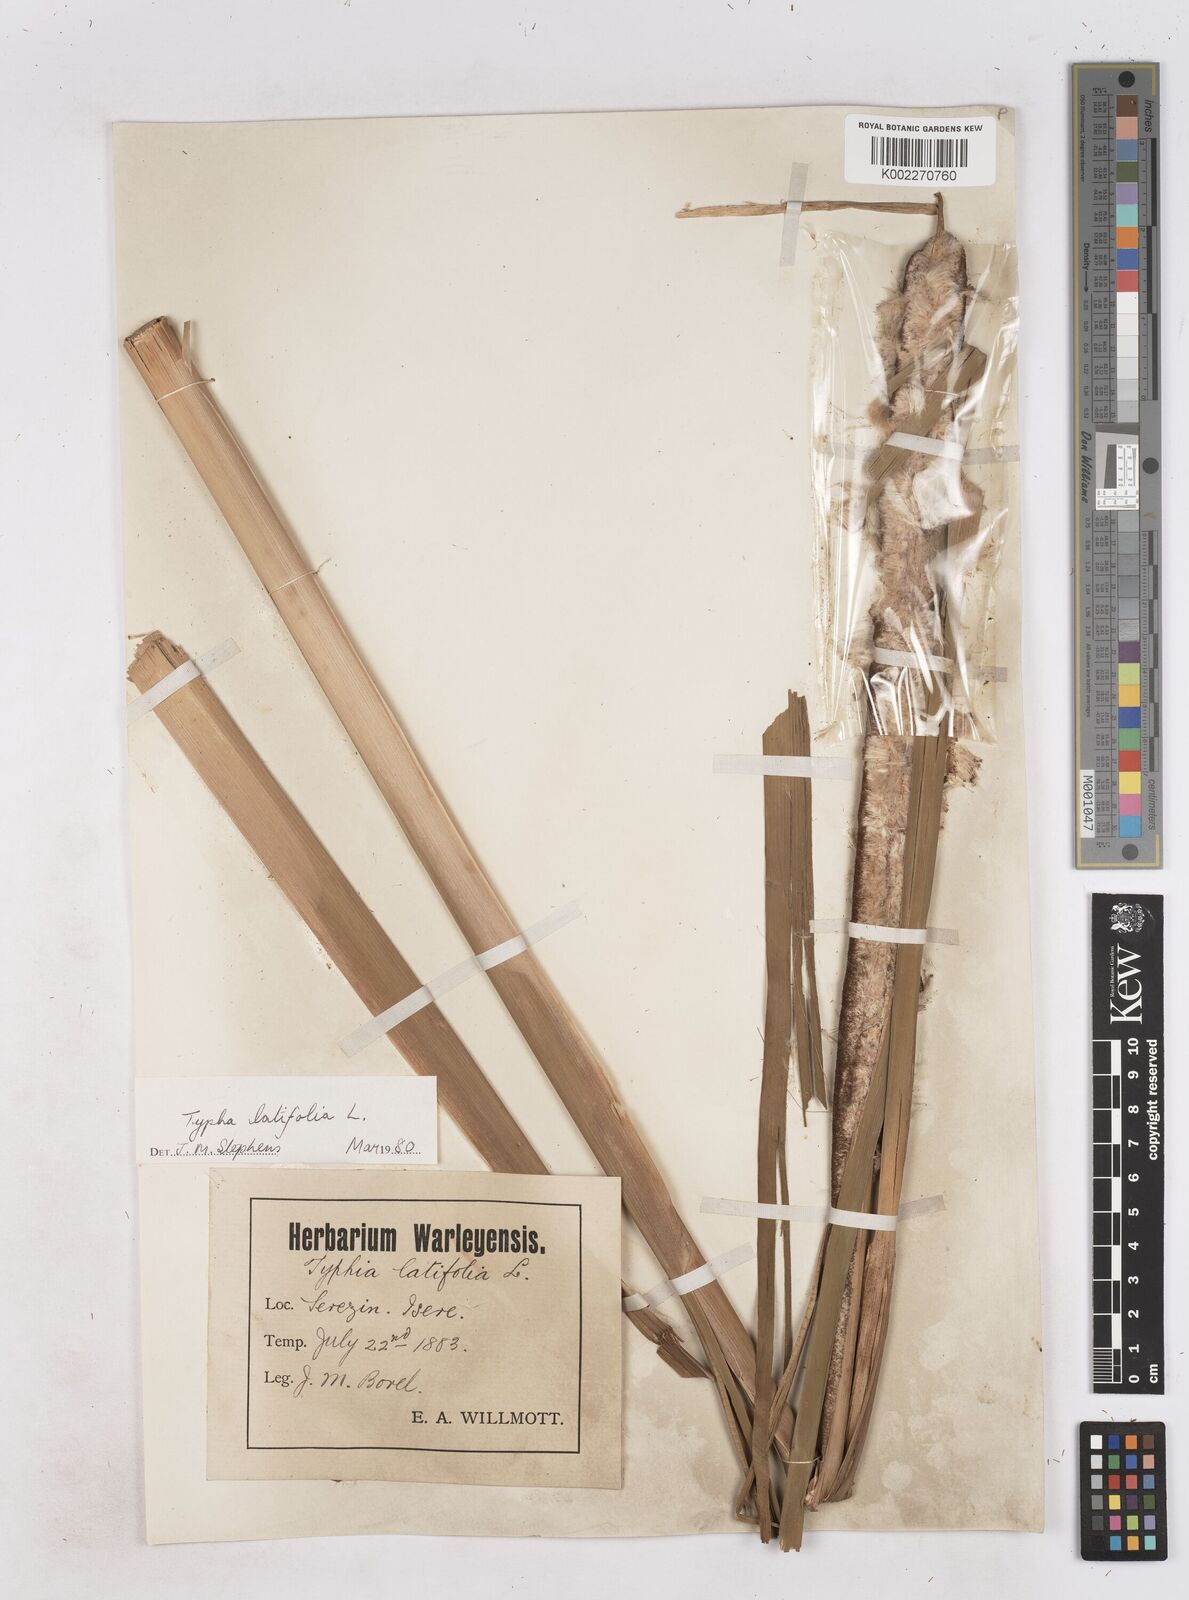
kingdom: Plantae
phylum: Tracheophyta
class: Liliopsida
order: Poales
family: Typhaceae
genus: Typha
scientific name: Typha latifolia
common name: Broadleaf cattail
